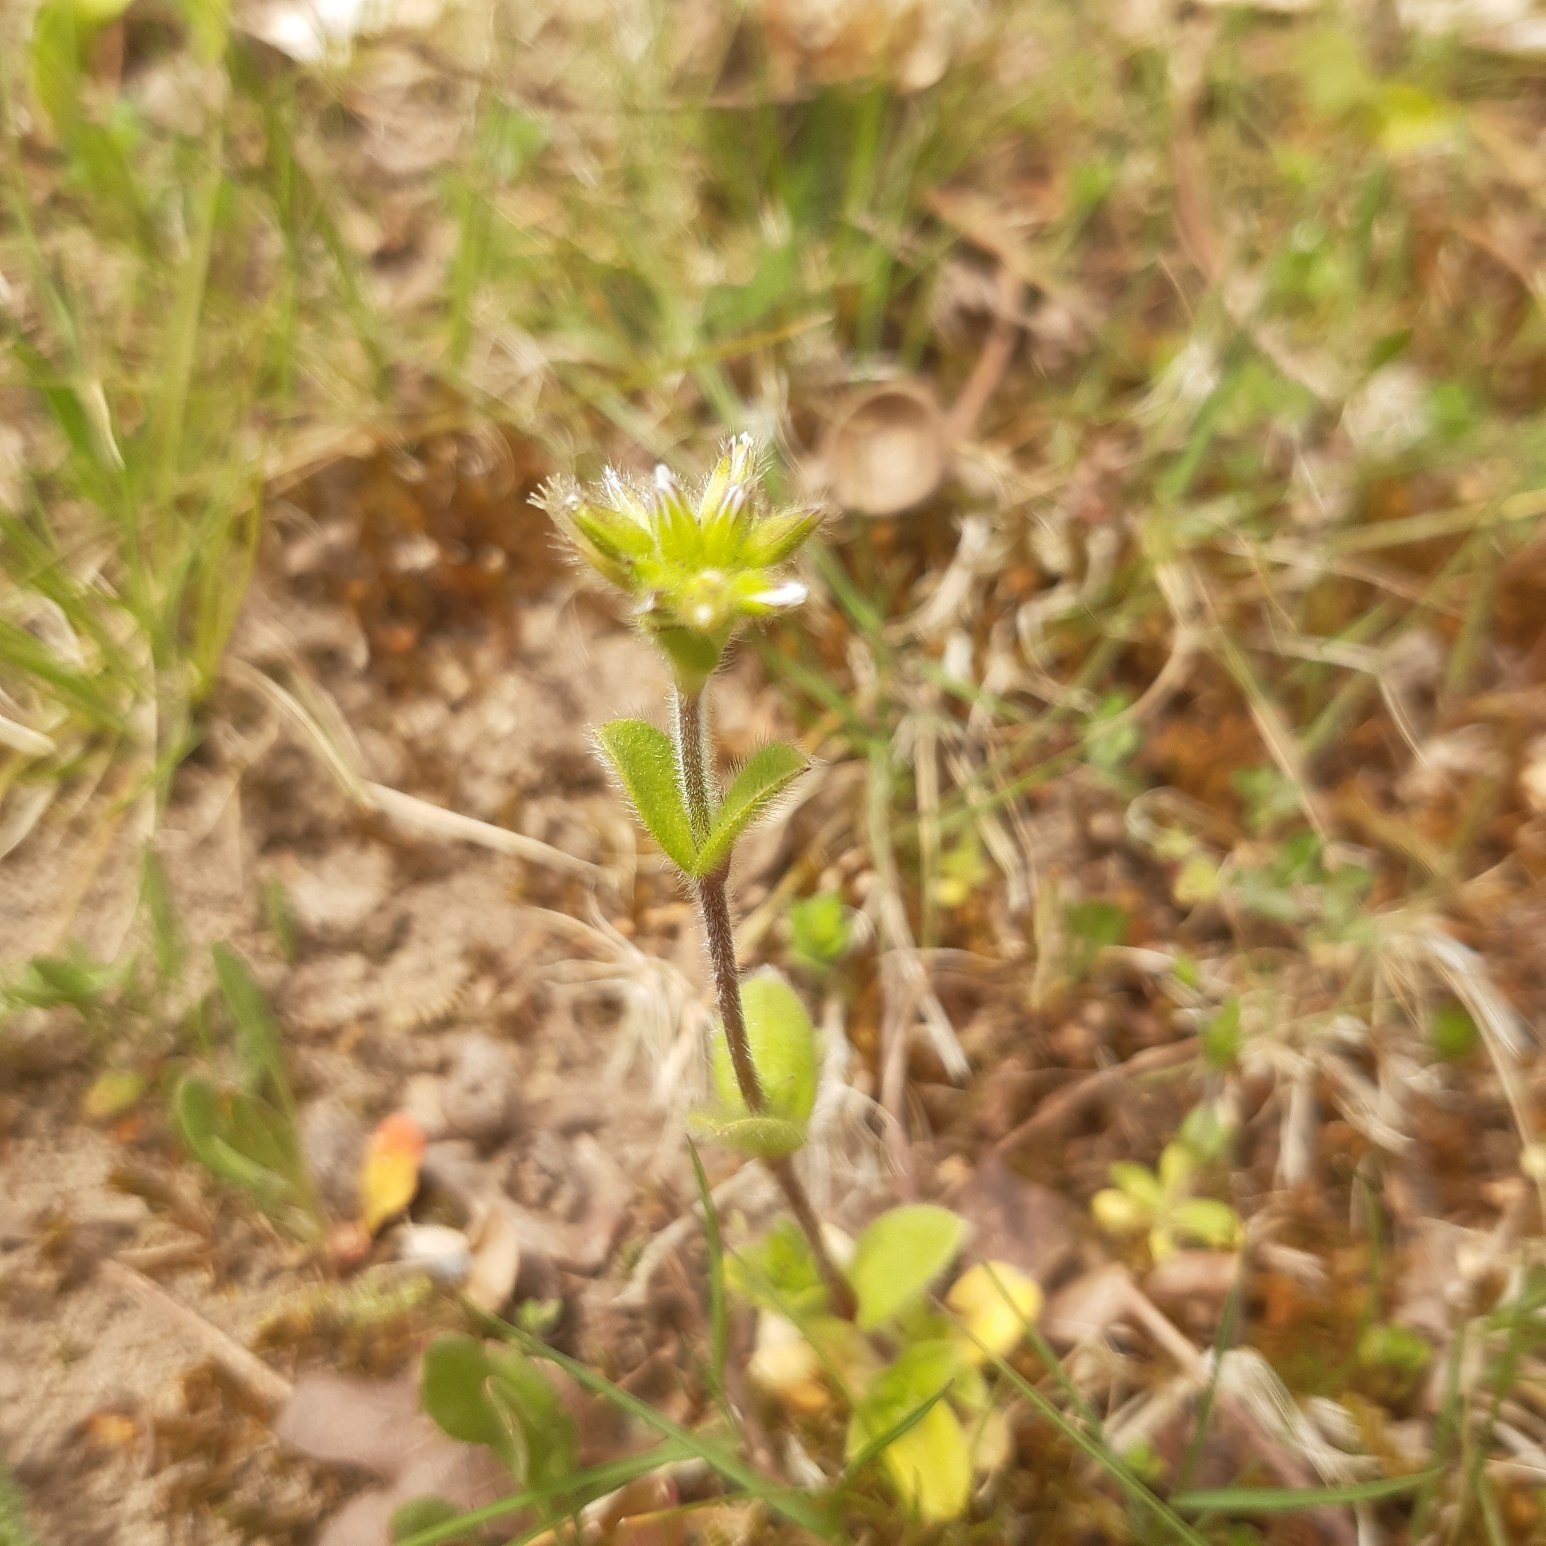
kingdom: Plantae
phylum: Tracheophyta
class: Magnoliopsida
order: Caryophyllales
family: Caryophyllaceae
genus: Cerastium
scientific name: Cerastium glomeratum
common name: Opret hønsetarm
